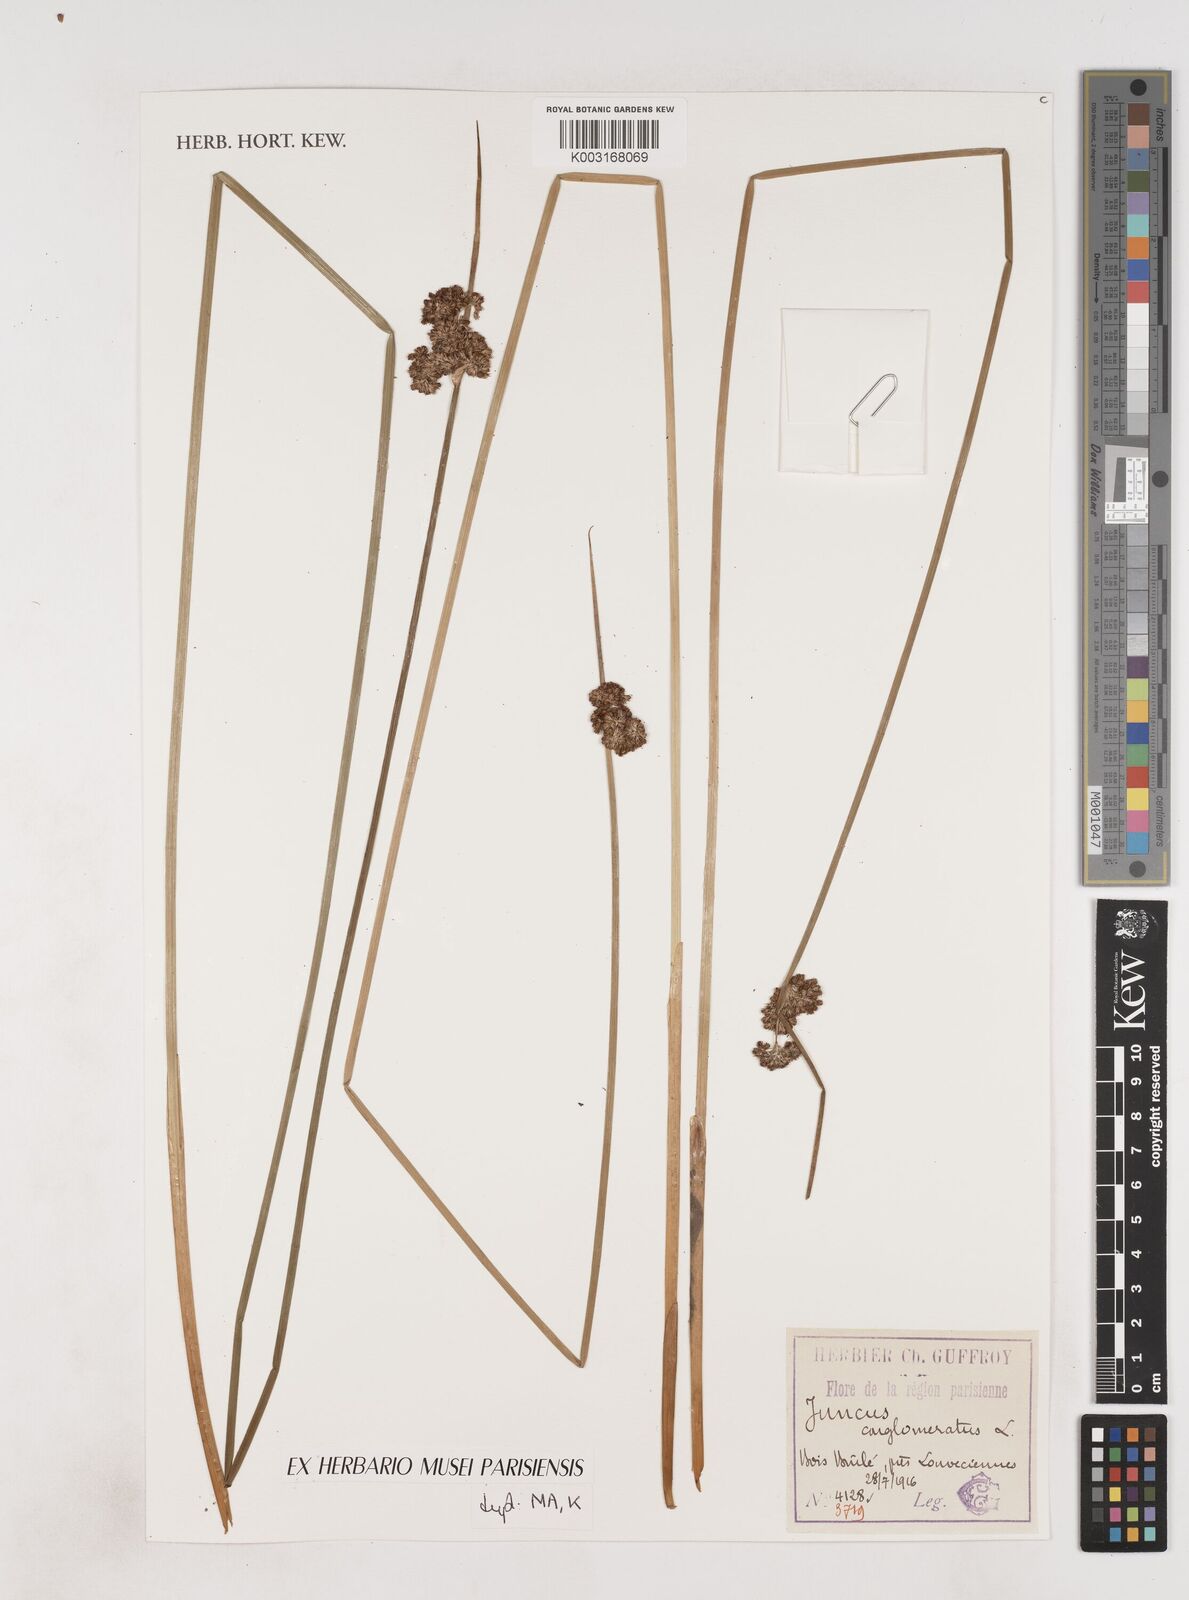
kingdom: Plantae
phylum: Tracheophyta
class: Liliopsida
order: Poales
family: Juncaceae
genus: Juncus
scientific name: Juncus conglomeratus
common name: Compact rush
